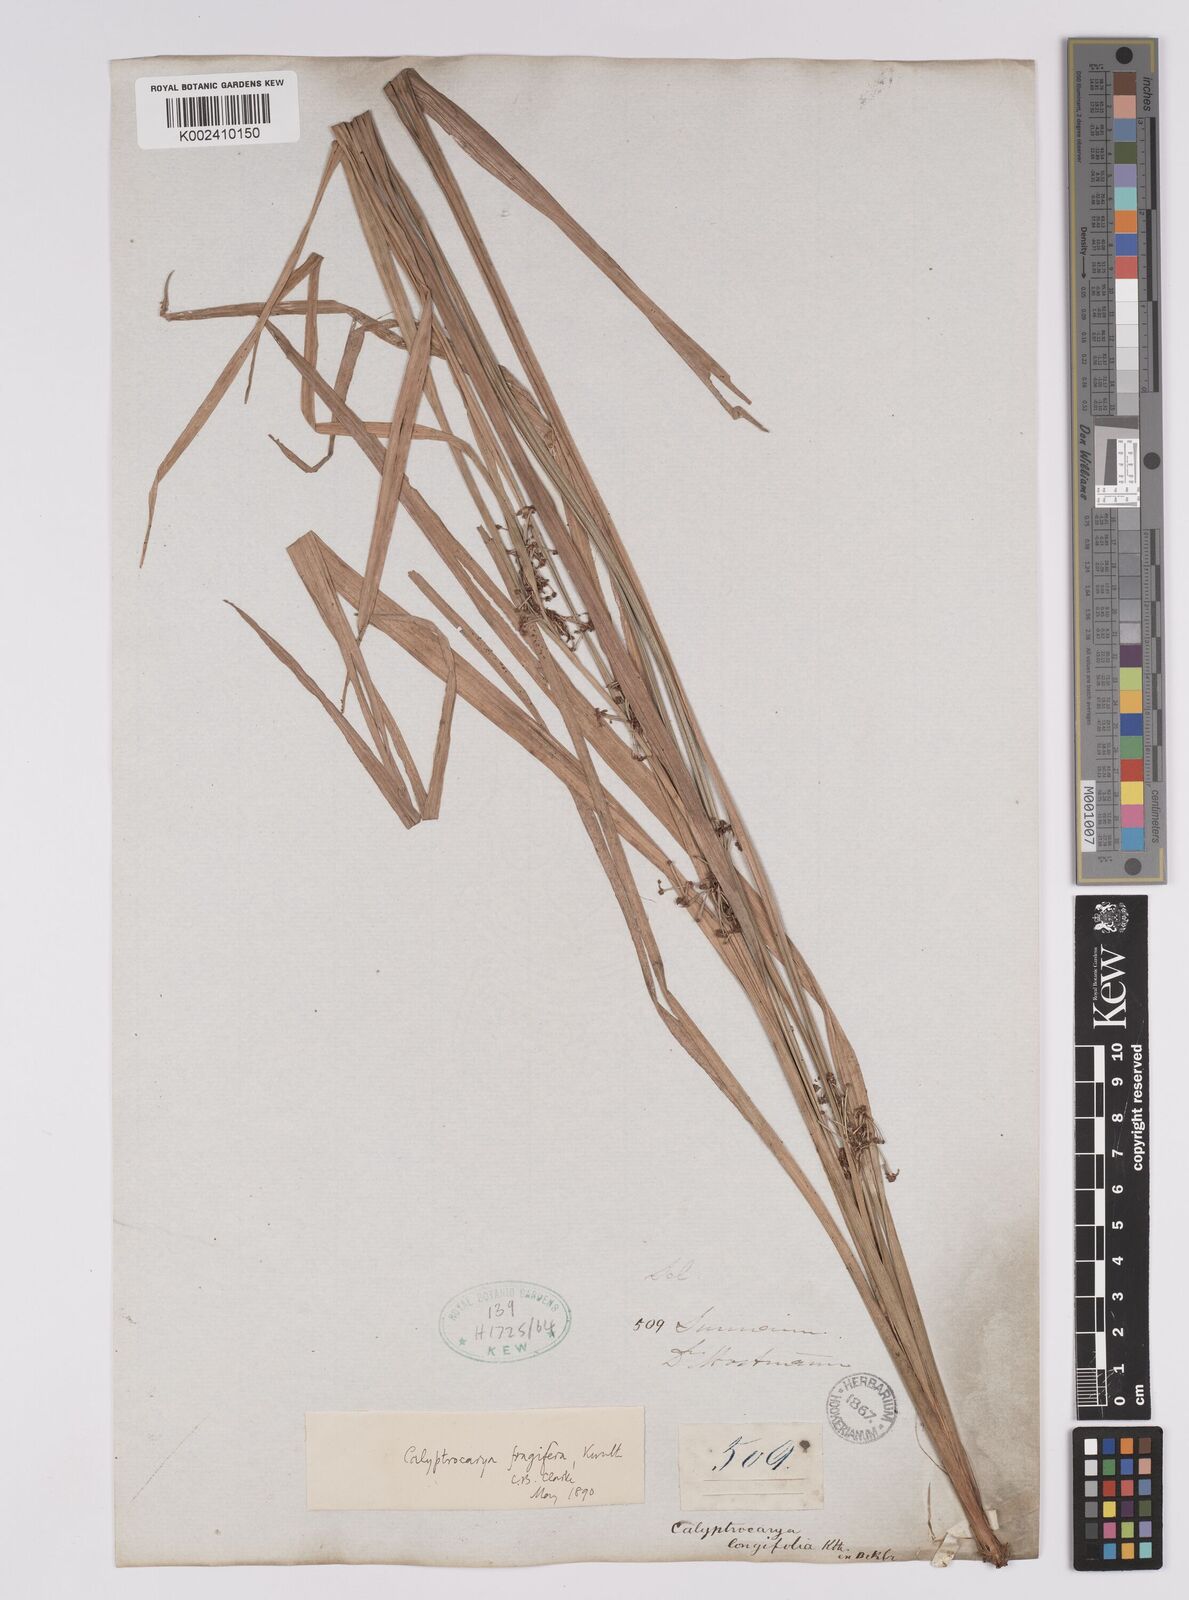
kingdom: Plantae
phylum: Tracheophyta
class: Liliopsida
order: Poales
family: Cyperaceae
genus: Calyptrocarya
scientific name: Calyptrocarya glomerulata
